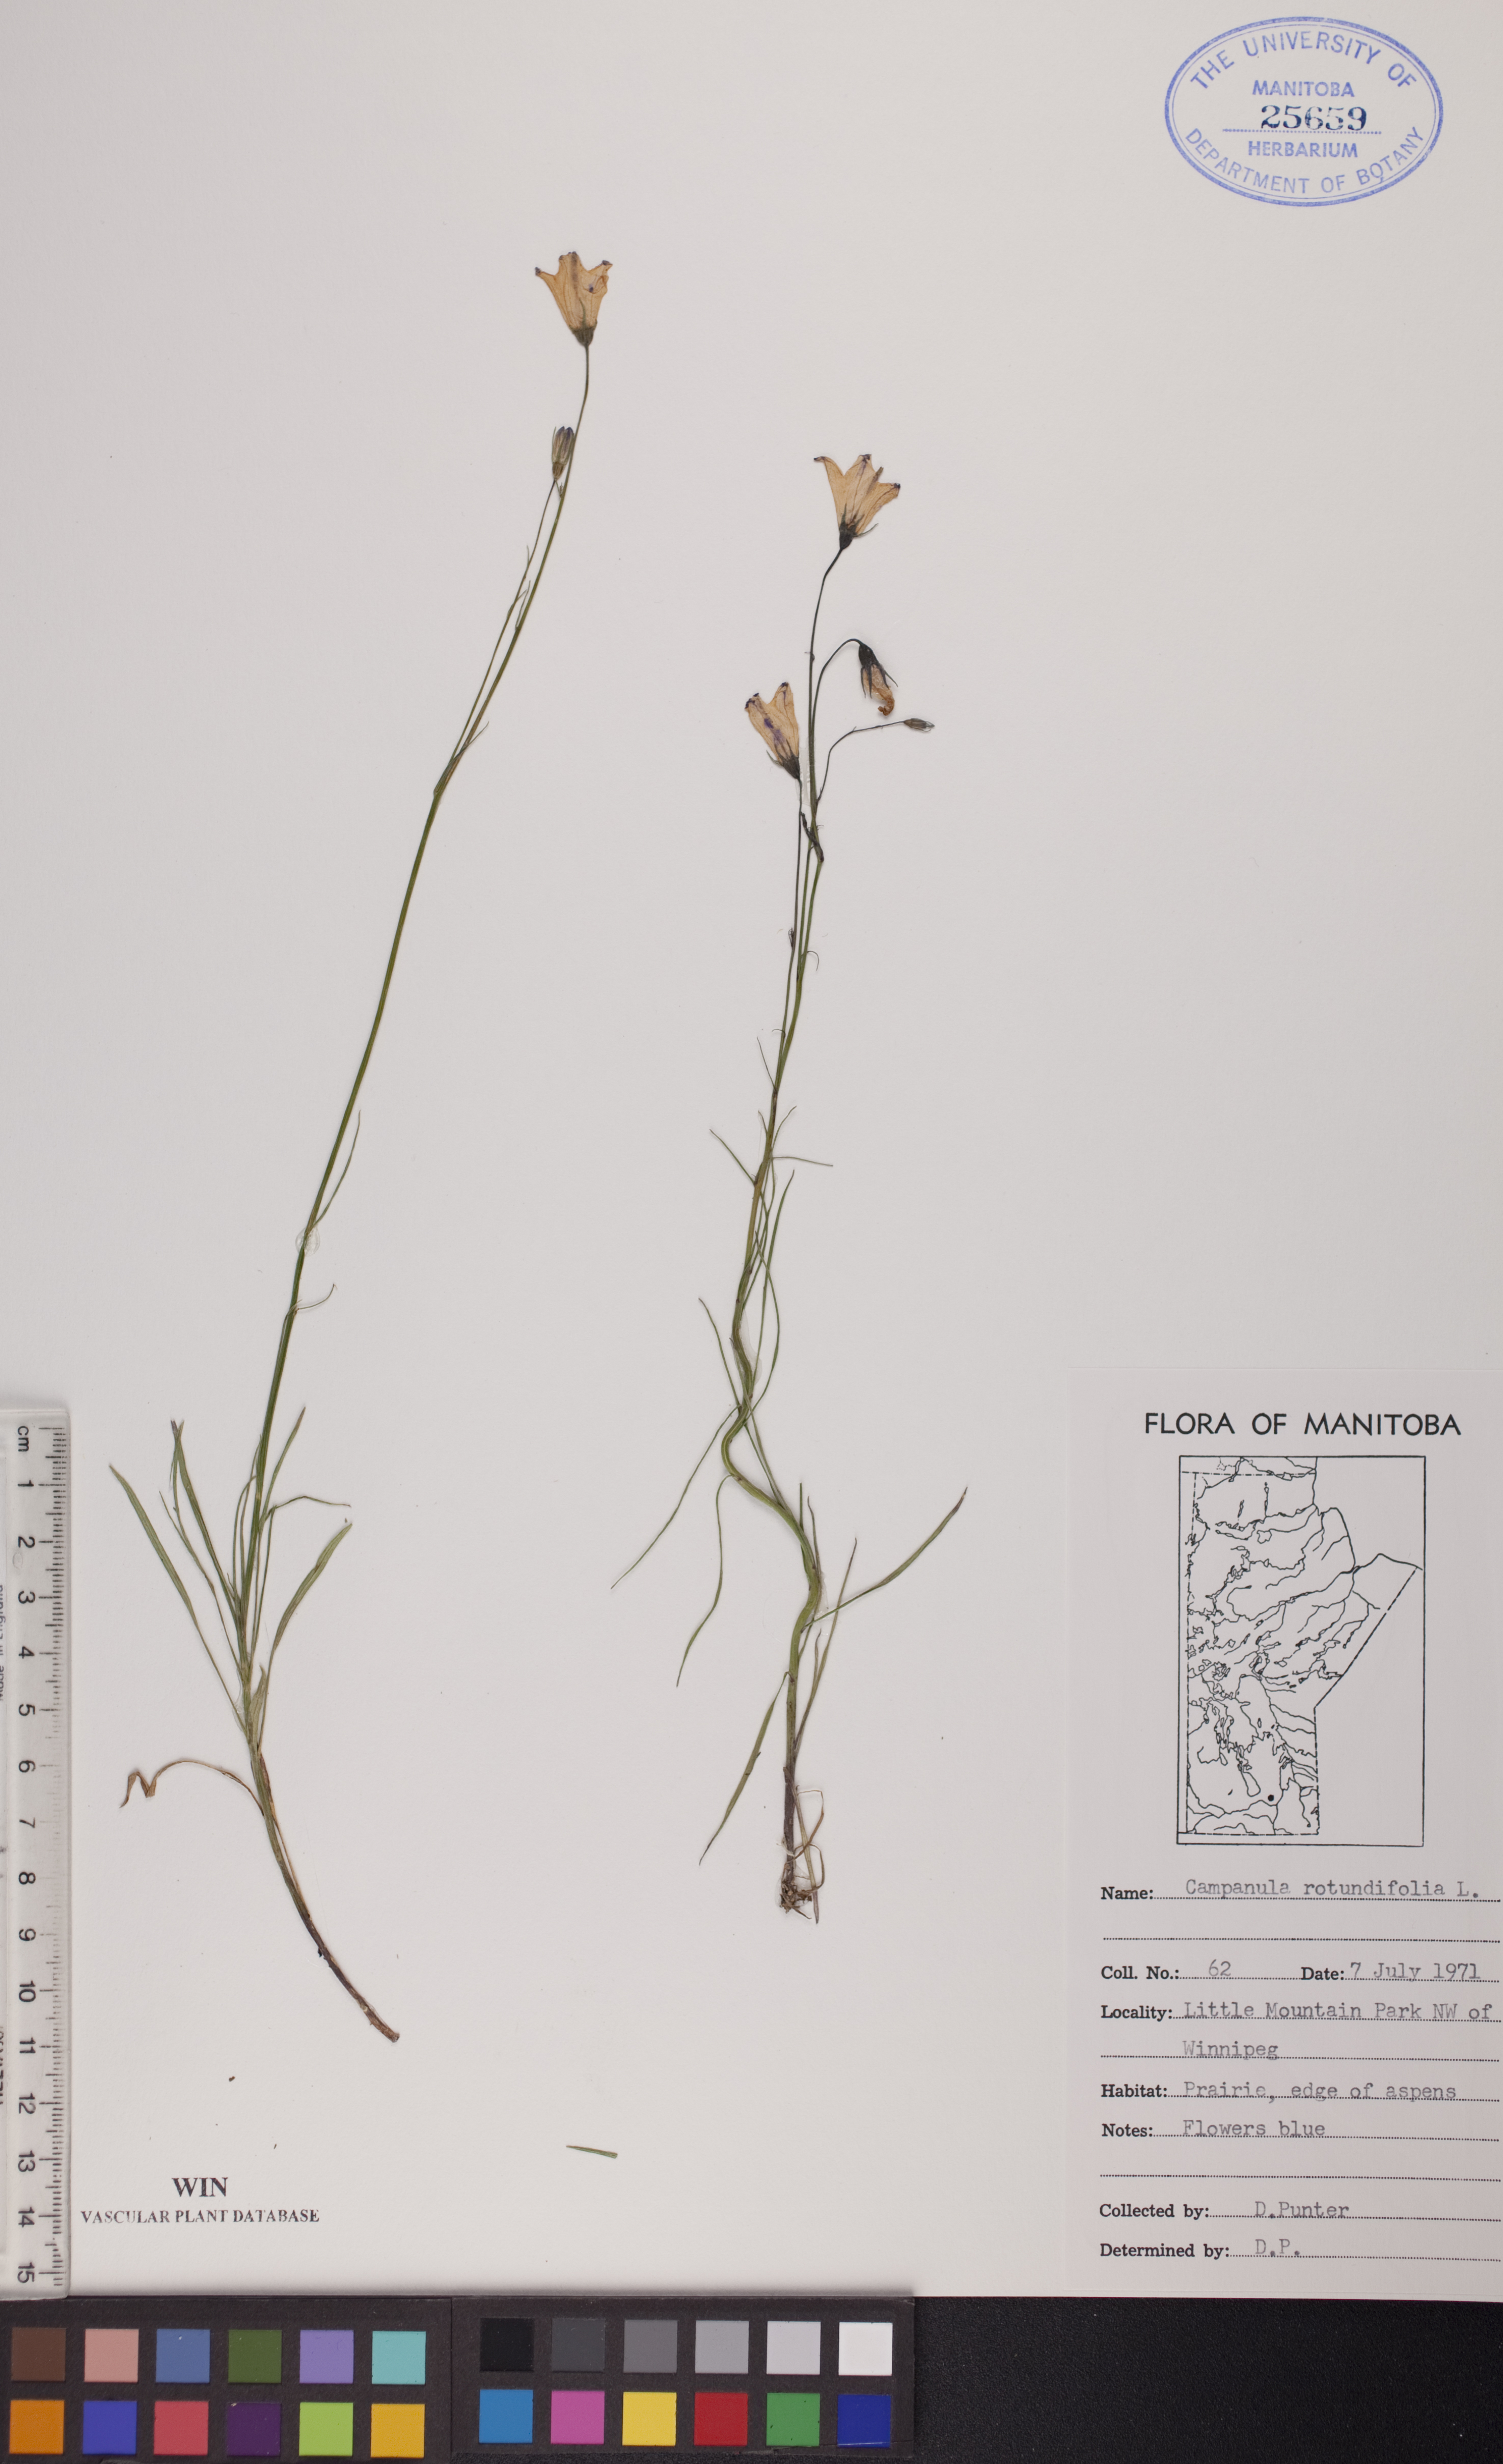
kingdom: Plantae
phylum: Tracheophyta
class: Magnoliopsida
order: Asterales
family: Campanulaceae
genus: Campanula
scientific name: Campanula rotundifolia
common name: Harebell
